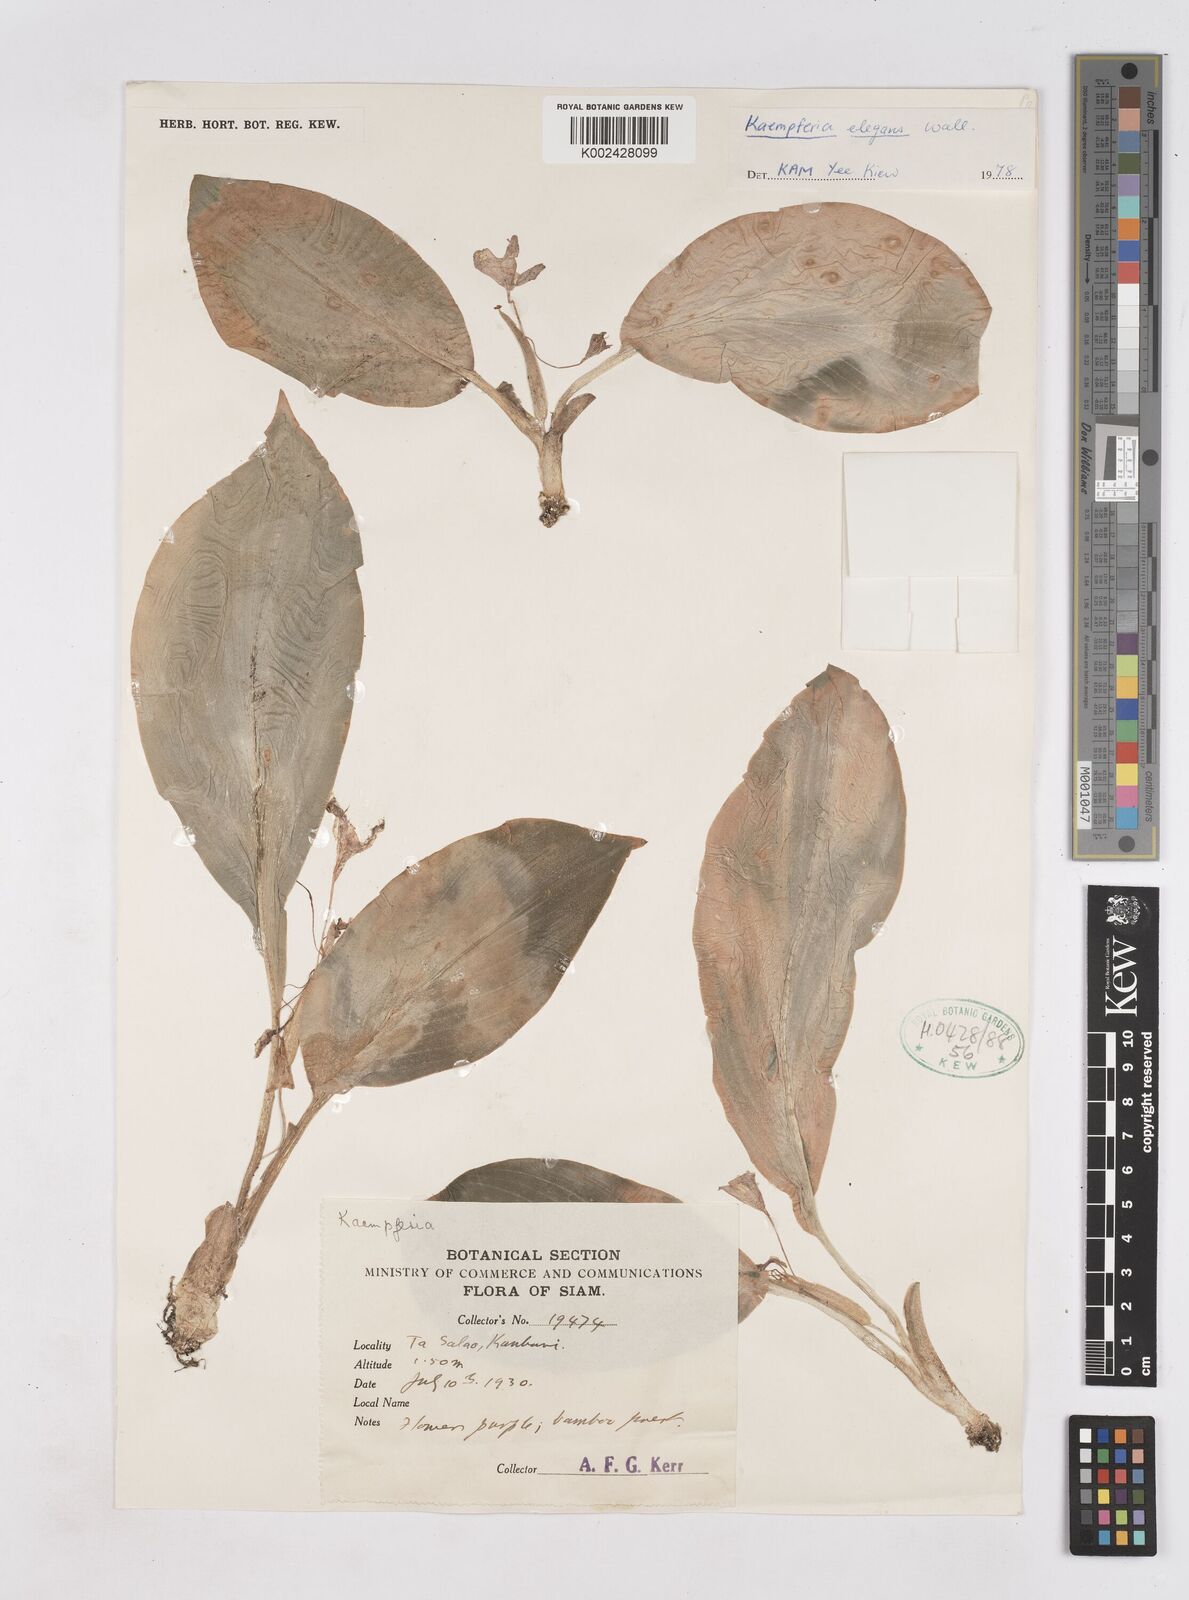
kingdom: Plantae
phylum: Tracheophyta
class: Liliopsida
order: Zingiberales
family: Zingiberaceae
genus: Kaempferia
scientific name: Kaempferia elegans
